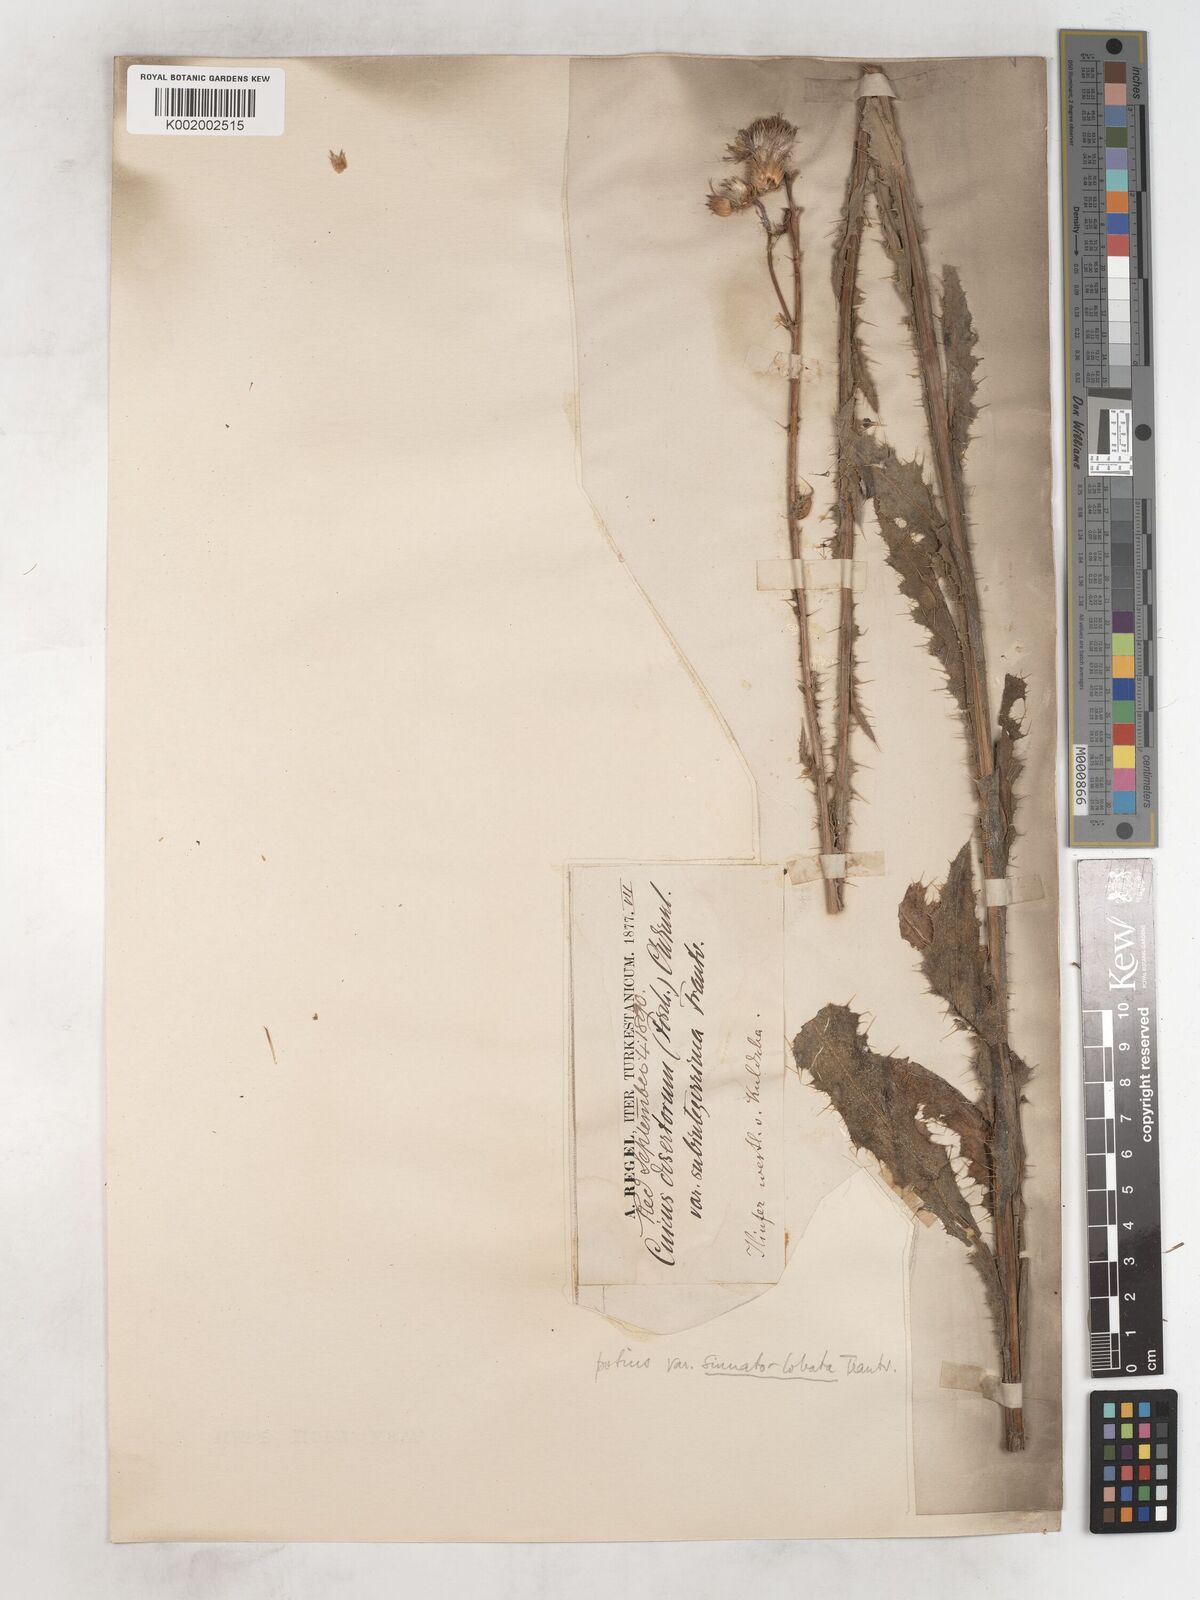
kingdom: Plantae
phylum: Tracheophyta
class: Magnoliopsida
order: Asterales
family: Asteraceae
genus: Cirsium
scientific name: Cirsium alatum
